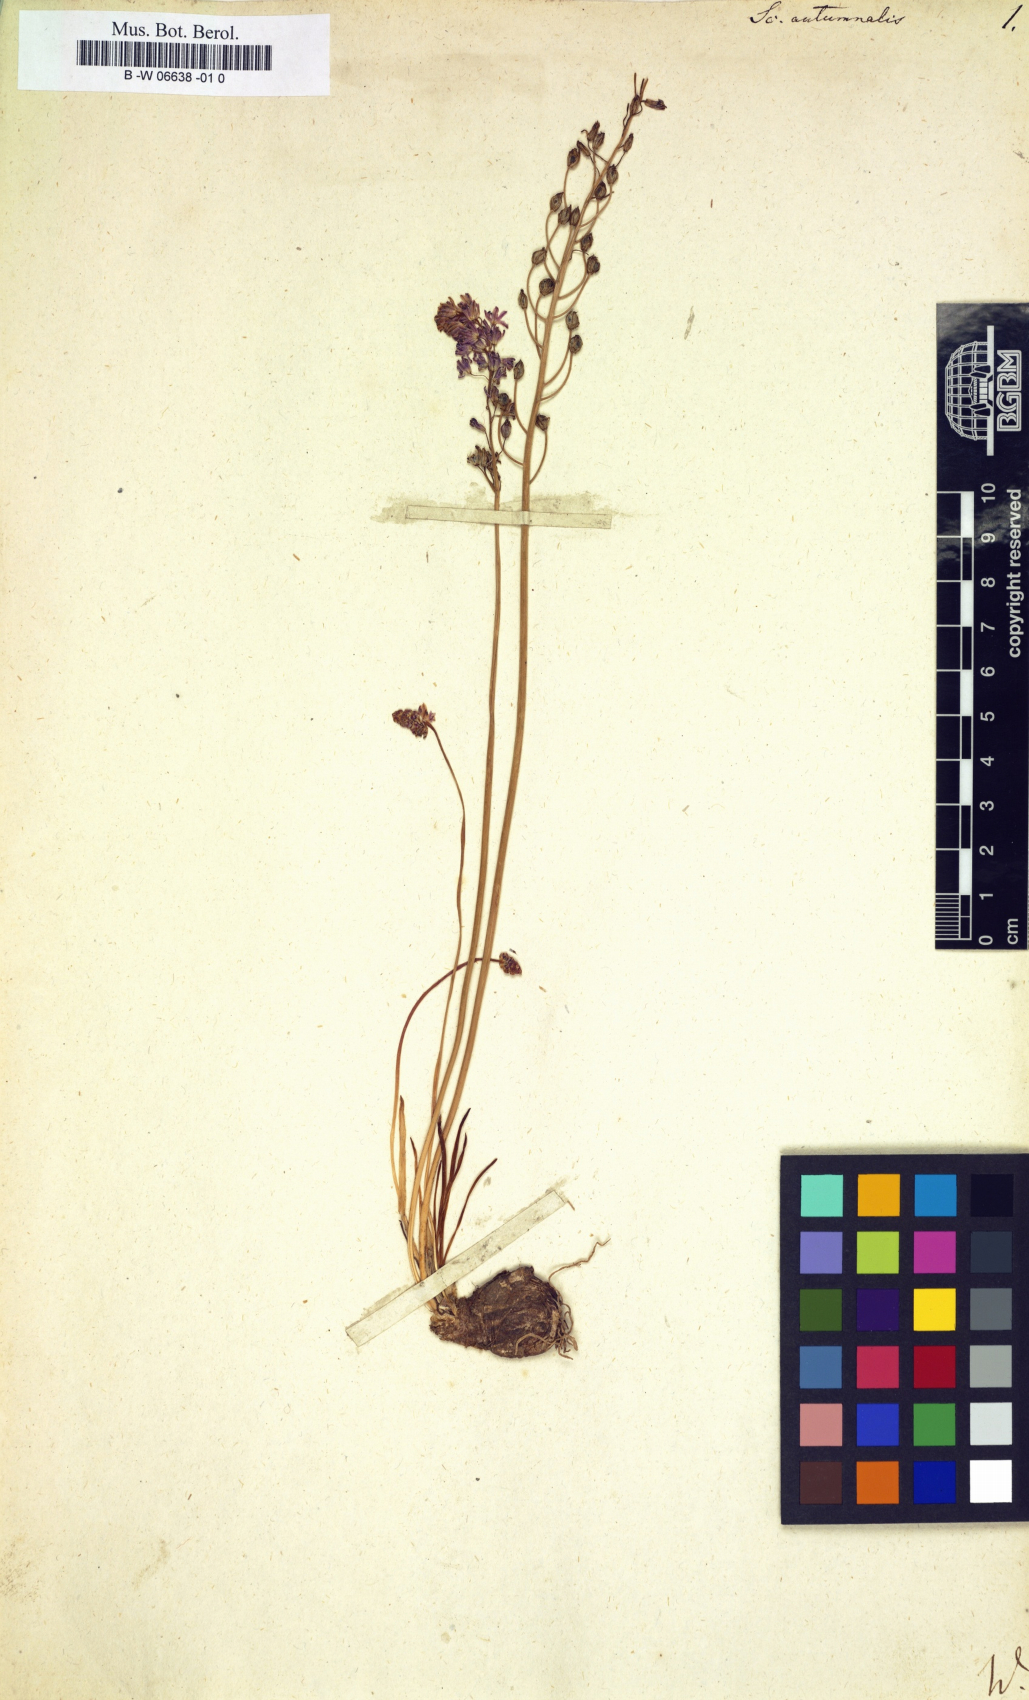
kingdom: Plantae
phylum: Tracheophyta
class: Liliopsida
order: Asparagales
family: Asparagaceae
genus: Scilla
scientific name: Scilla autumnalis
